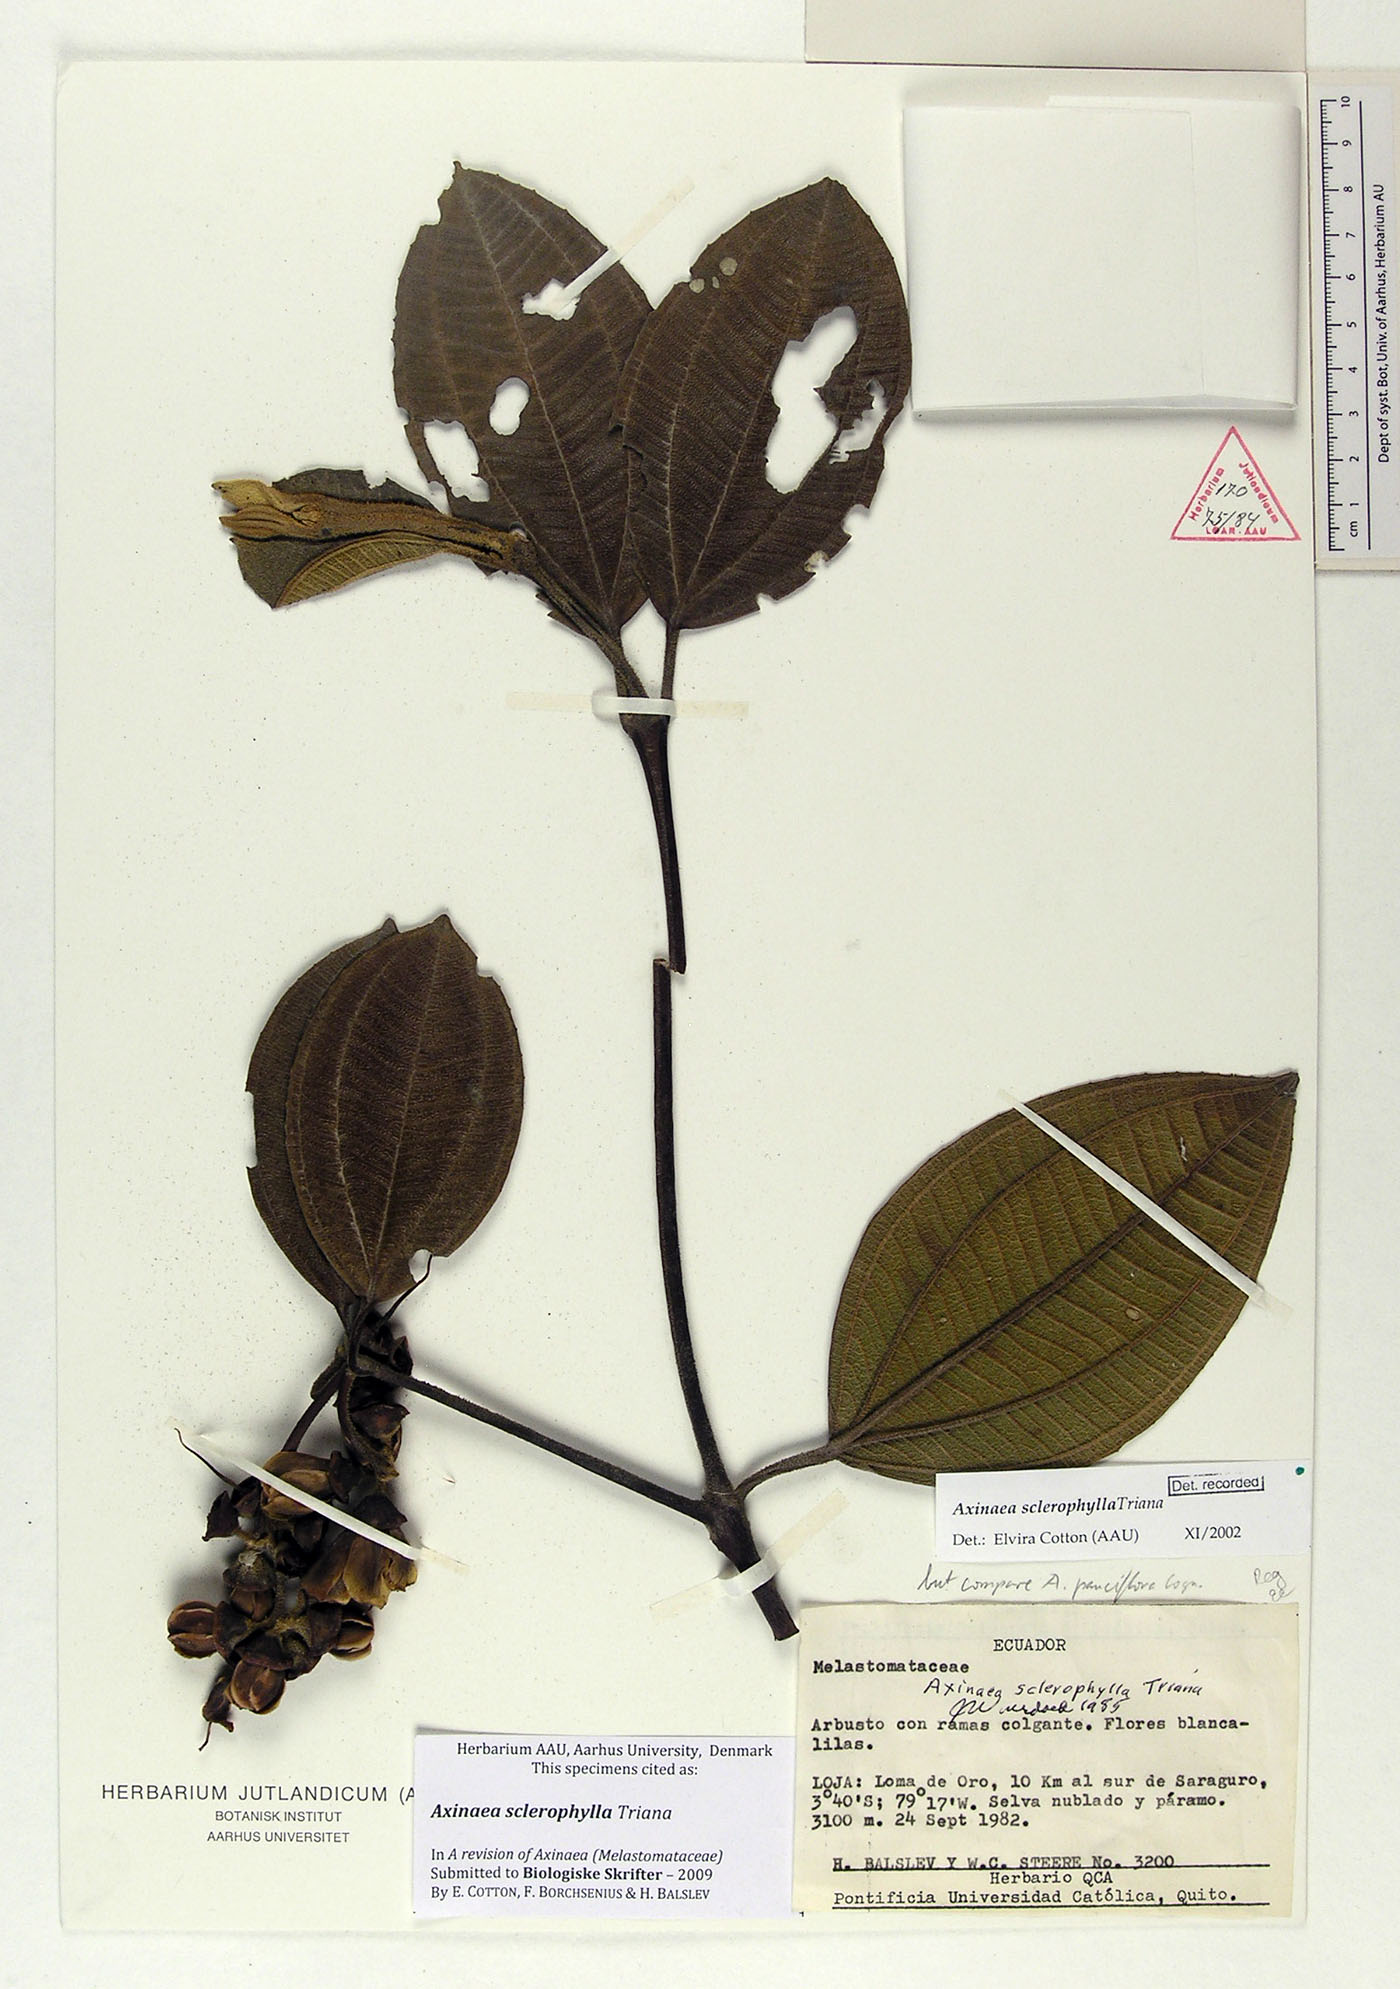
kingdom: Plantae
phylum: Tracheophyta
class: Magnoliopsida
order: Myrtales
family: Melastomataceae
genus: Axinaea
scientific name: Axinaea sclerophylla
